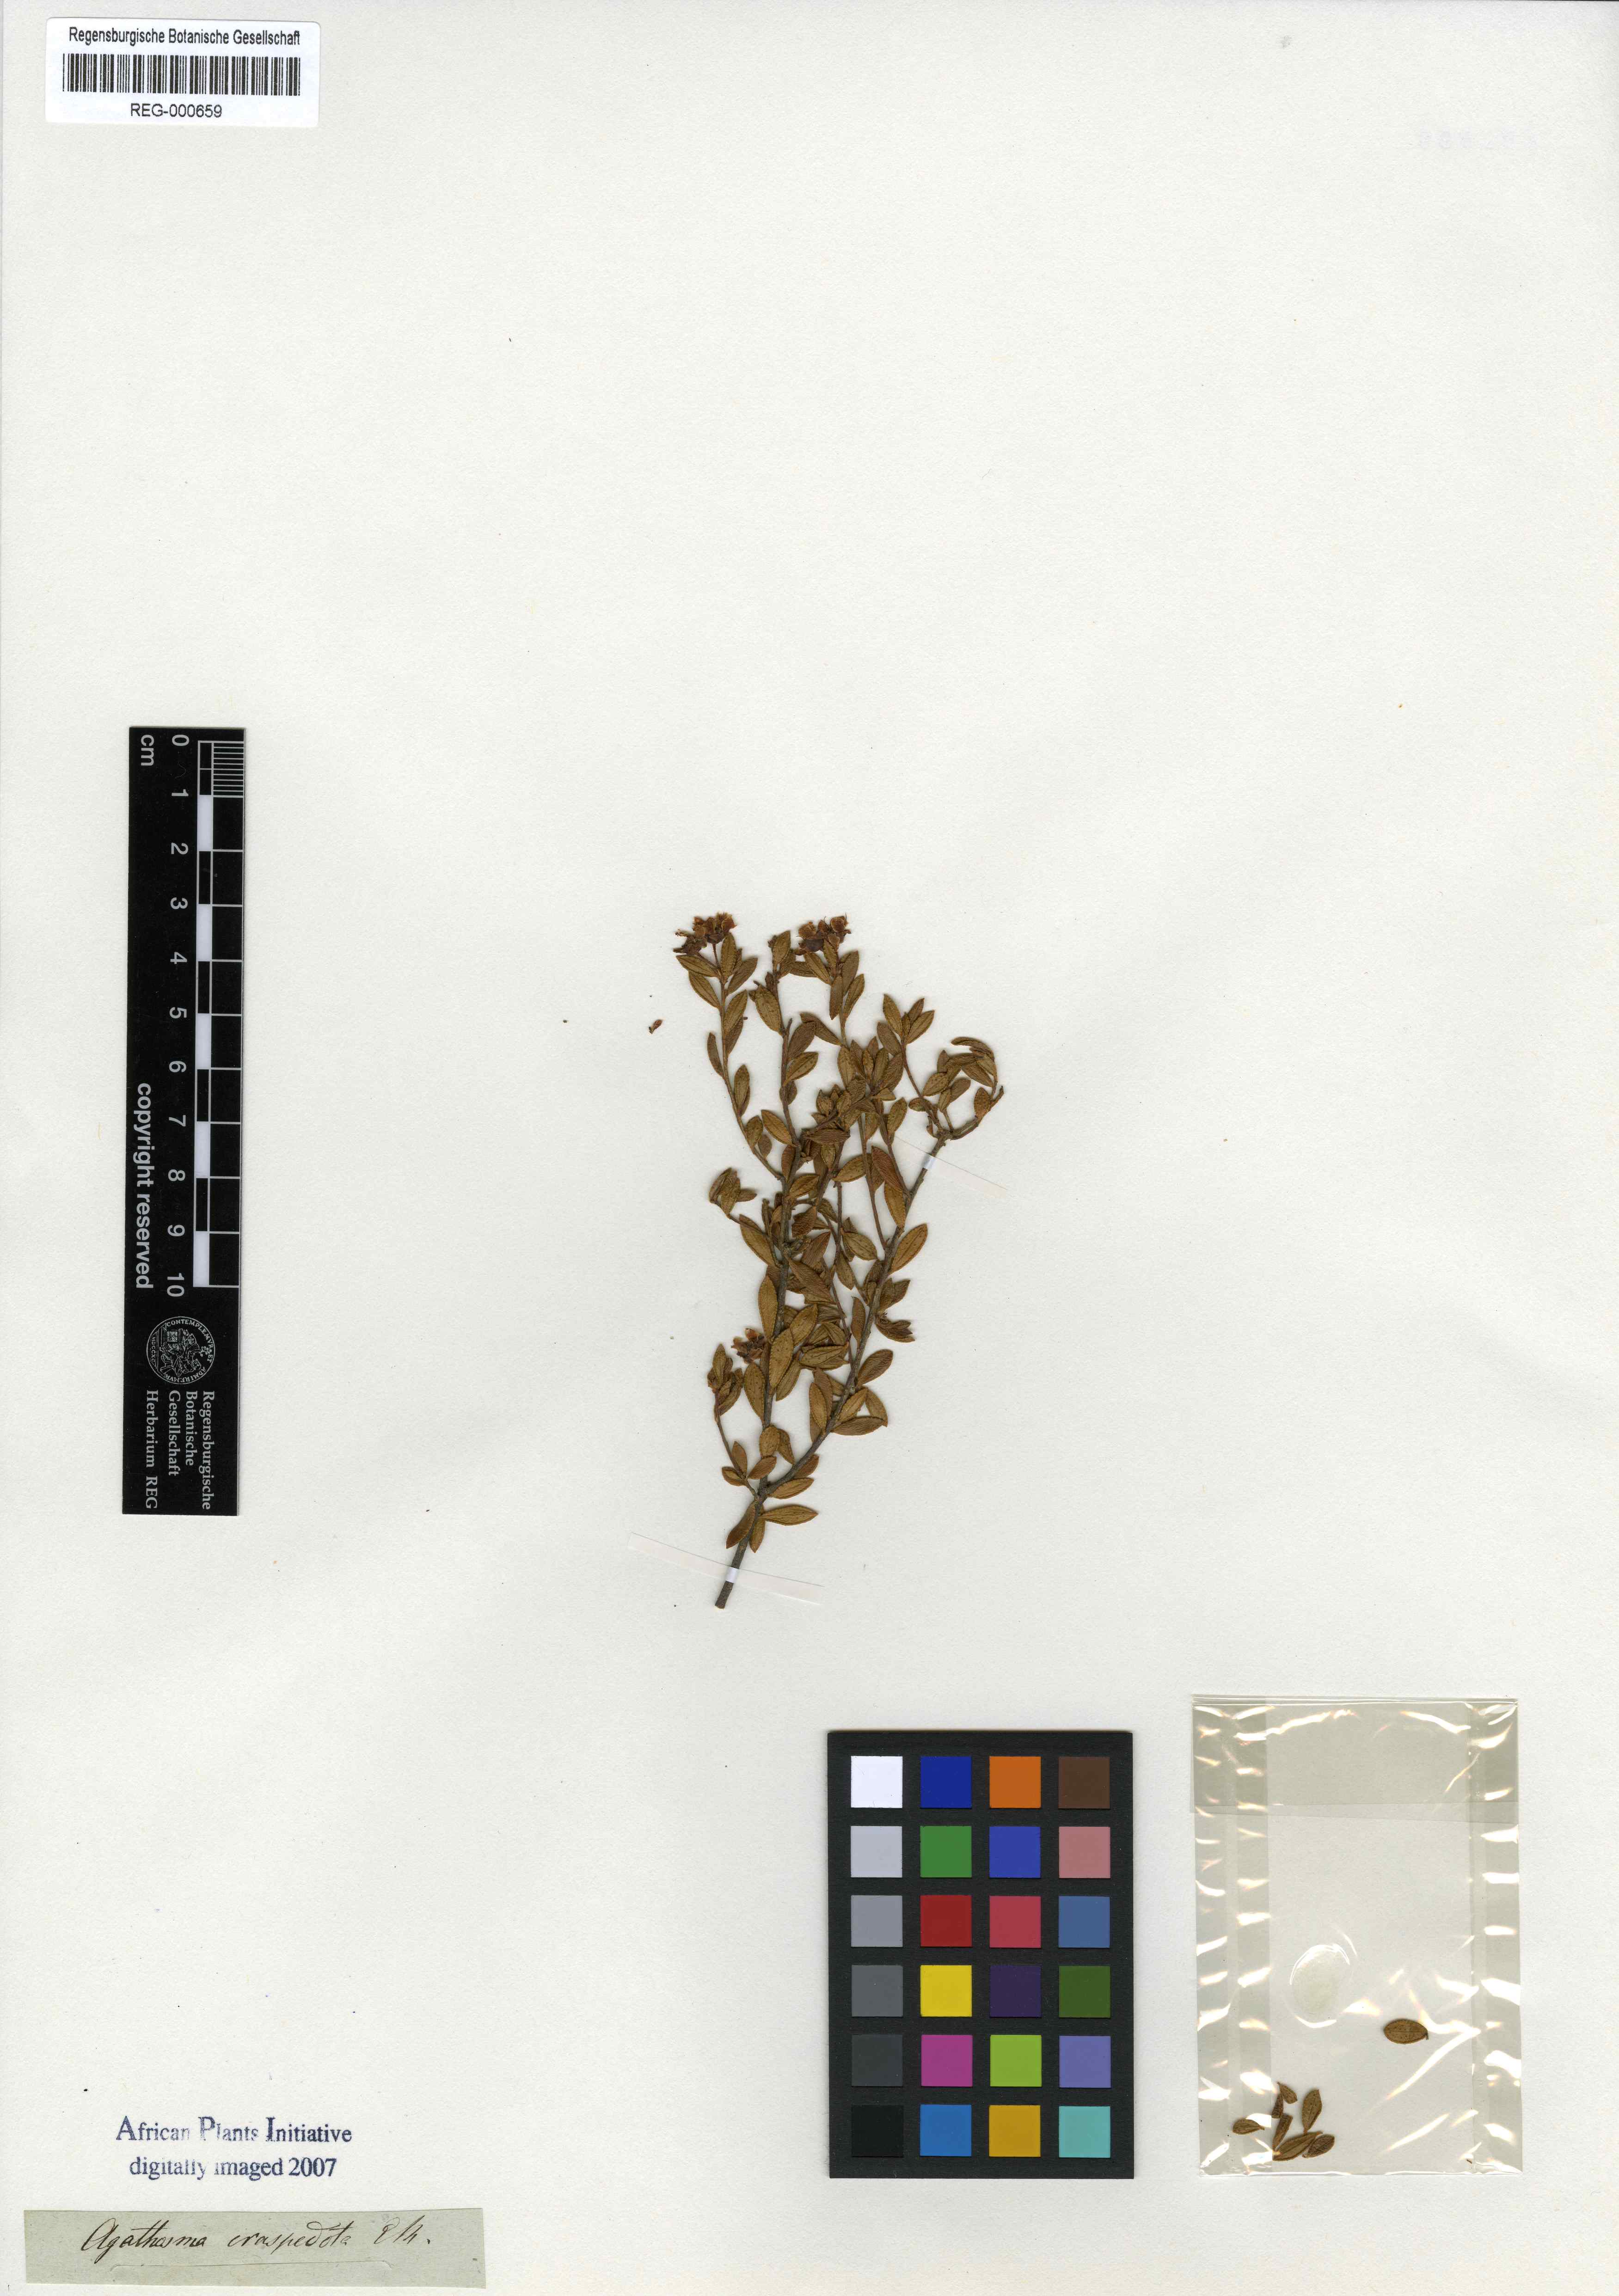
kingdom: Plantae
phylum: Tracheophyta
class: Magnoliopsida
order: Sapindales
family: Rutaceae
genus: Agathosma
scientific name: Agathosma capensis
